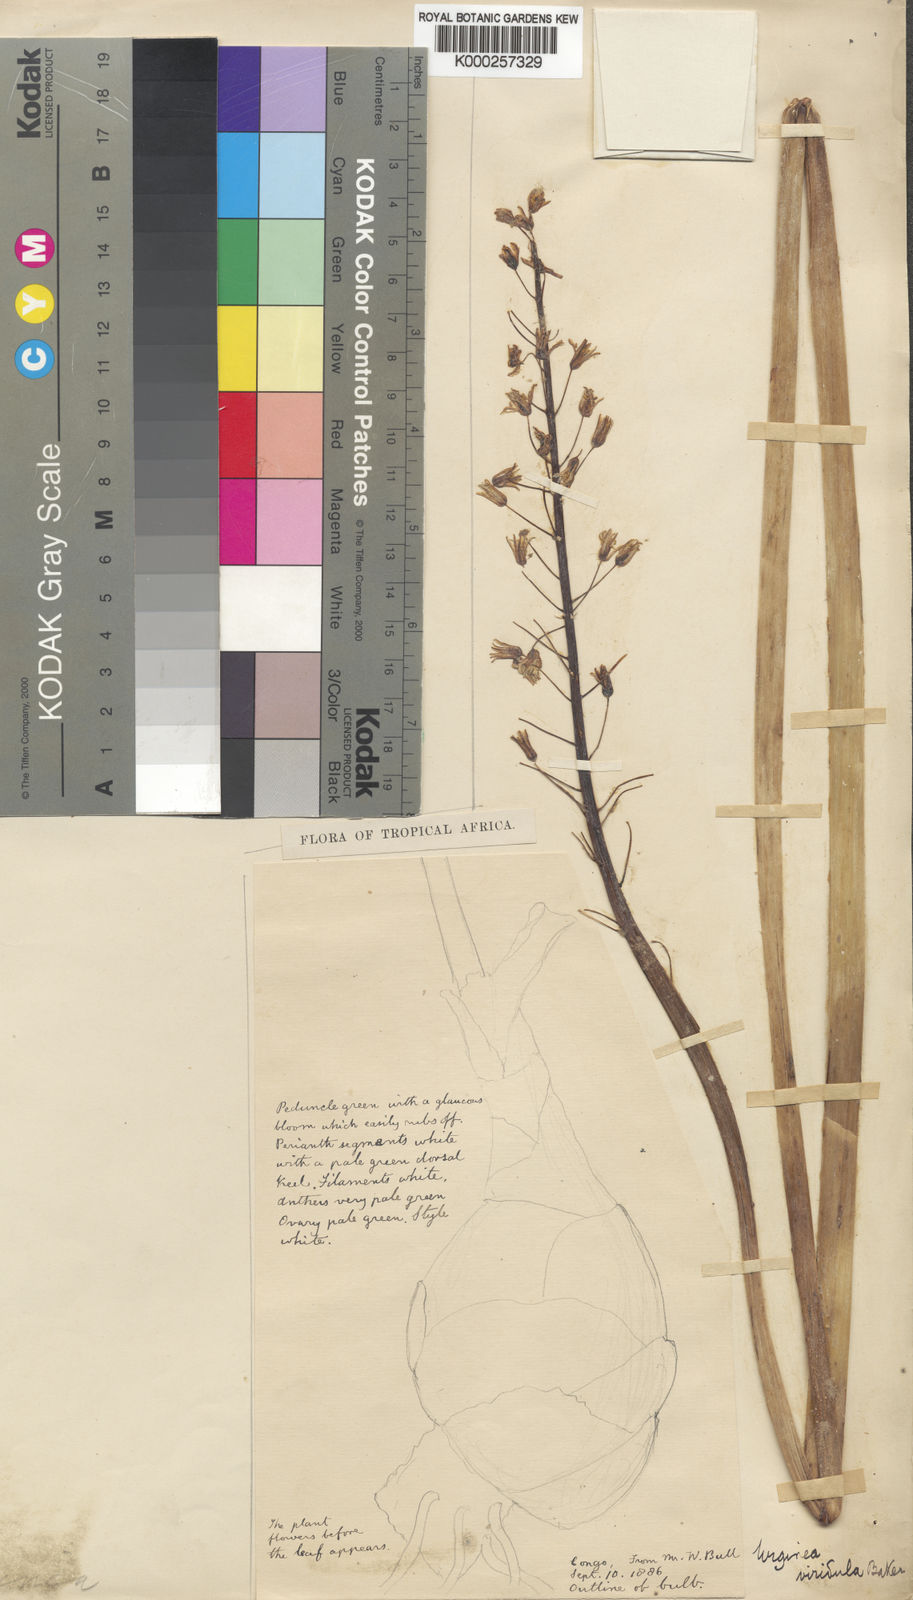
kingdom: Plantae
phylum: Tracheophyta
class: Liliopsida
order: Asparagales
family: Asparagaceae
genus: Drimia
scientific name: Drimia viridula
